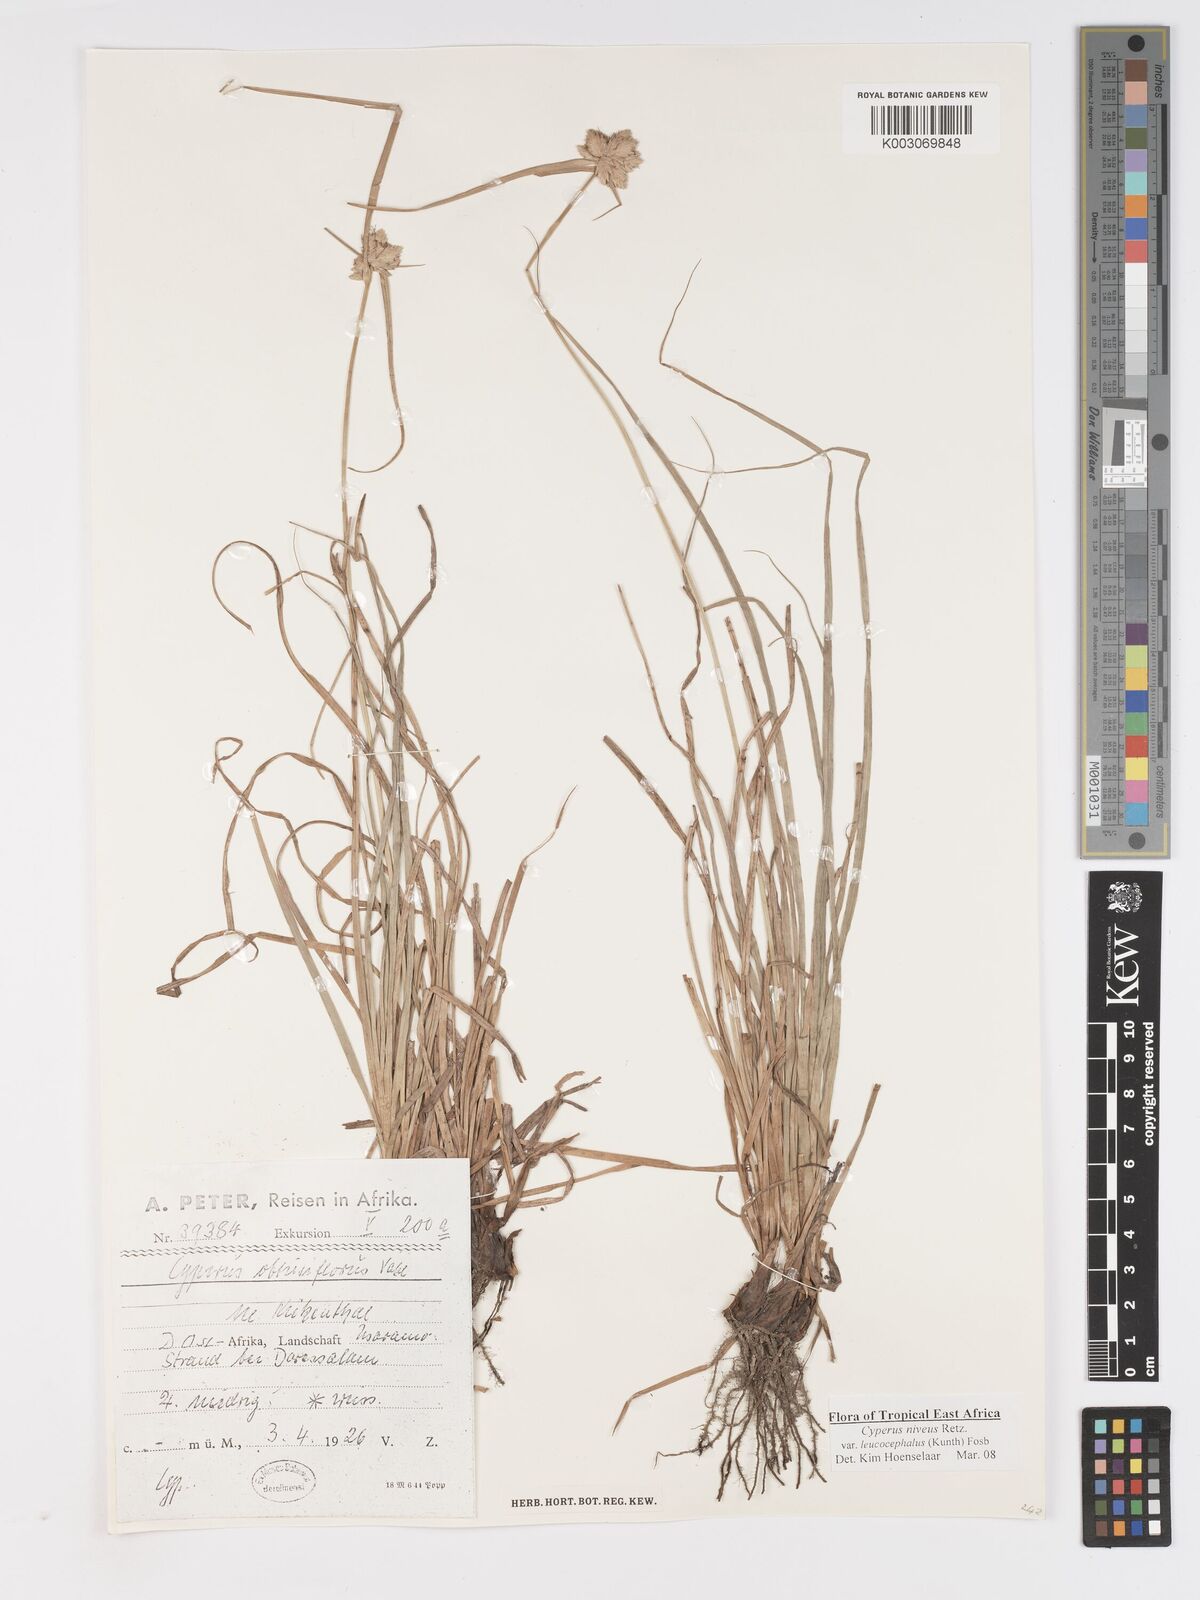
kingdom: Plantae
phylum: Tracheophyta
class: Liliopsida
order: Poales
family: Cyperaceae
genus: Cyperus
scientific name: Cyperus niveus
